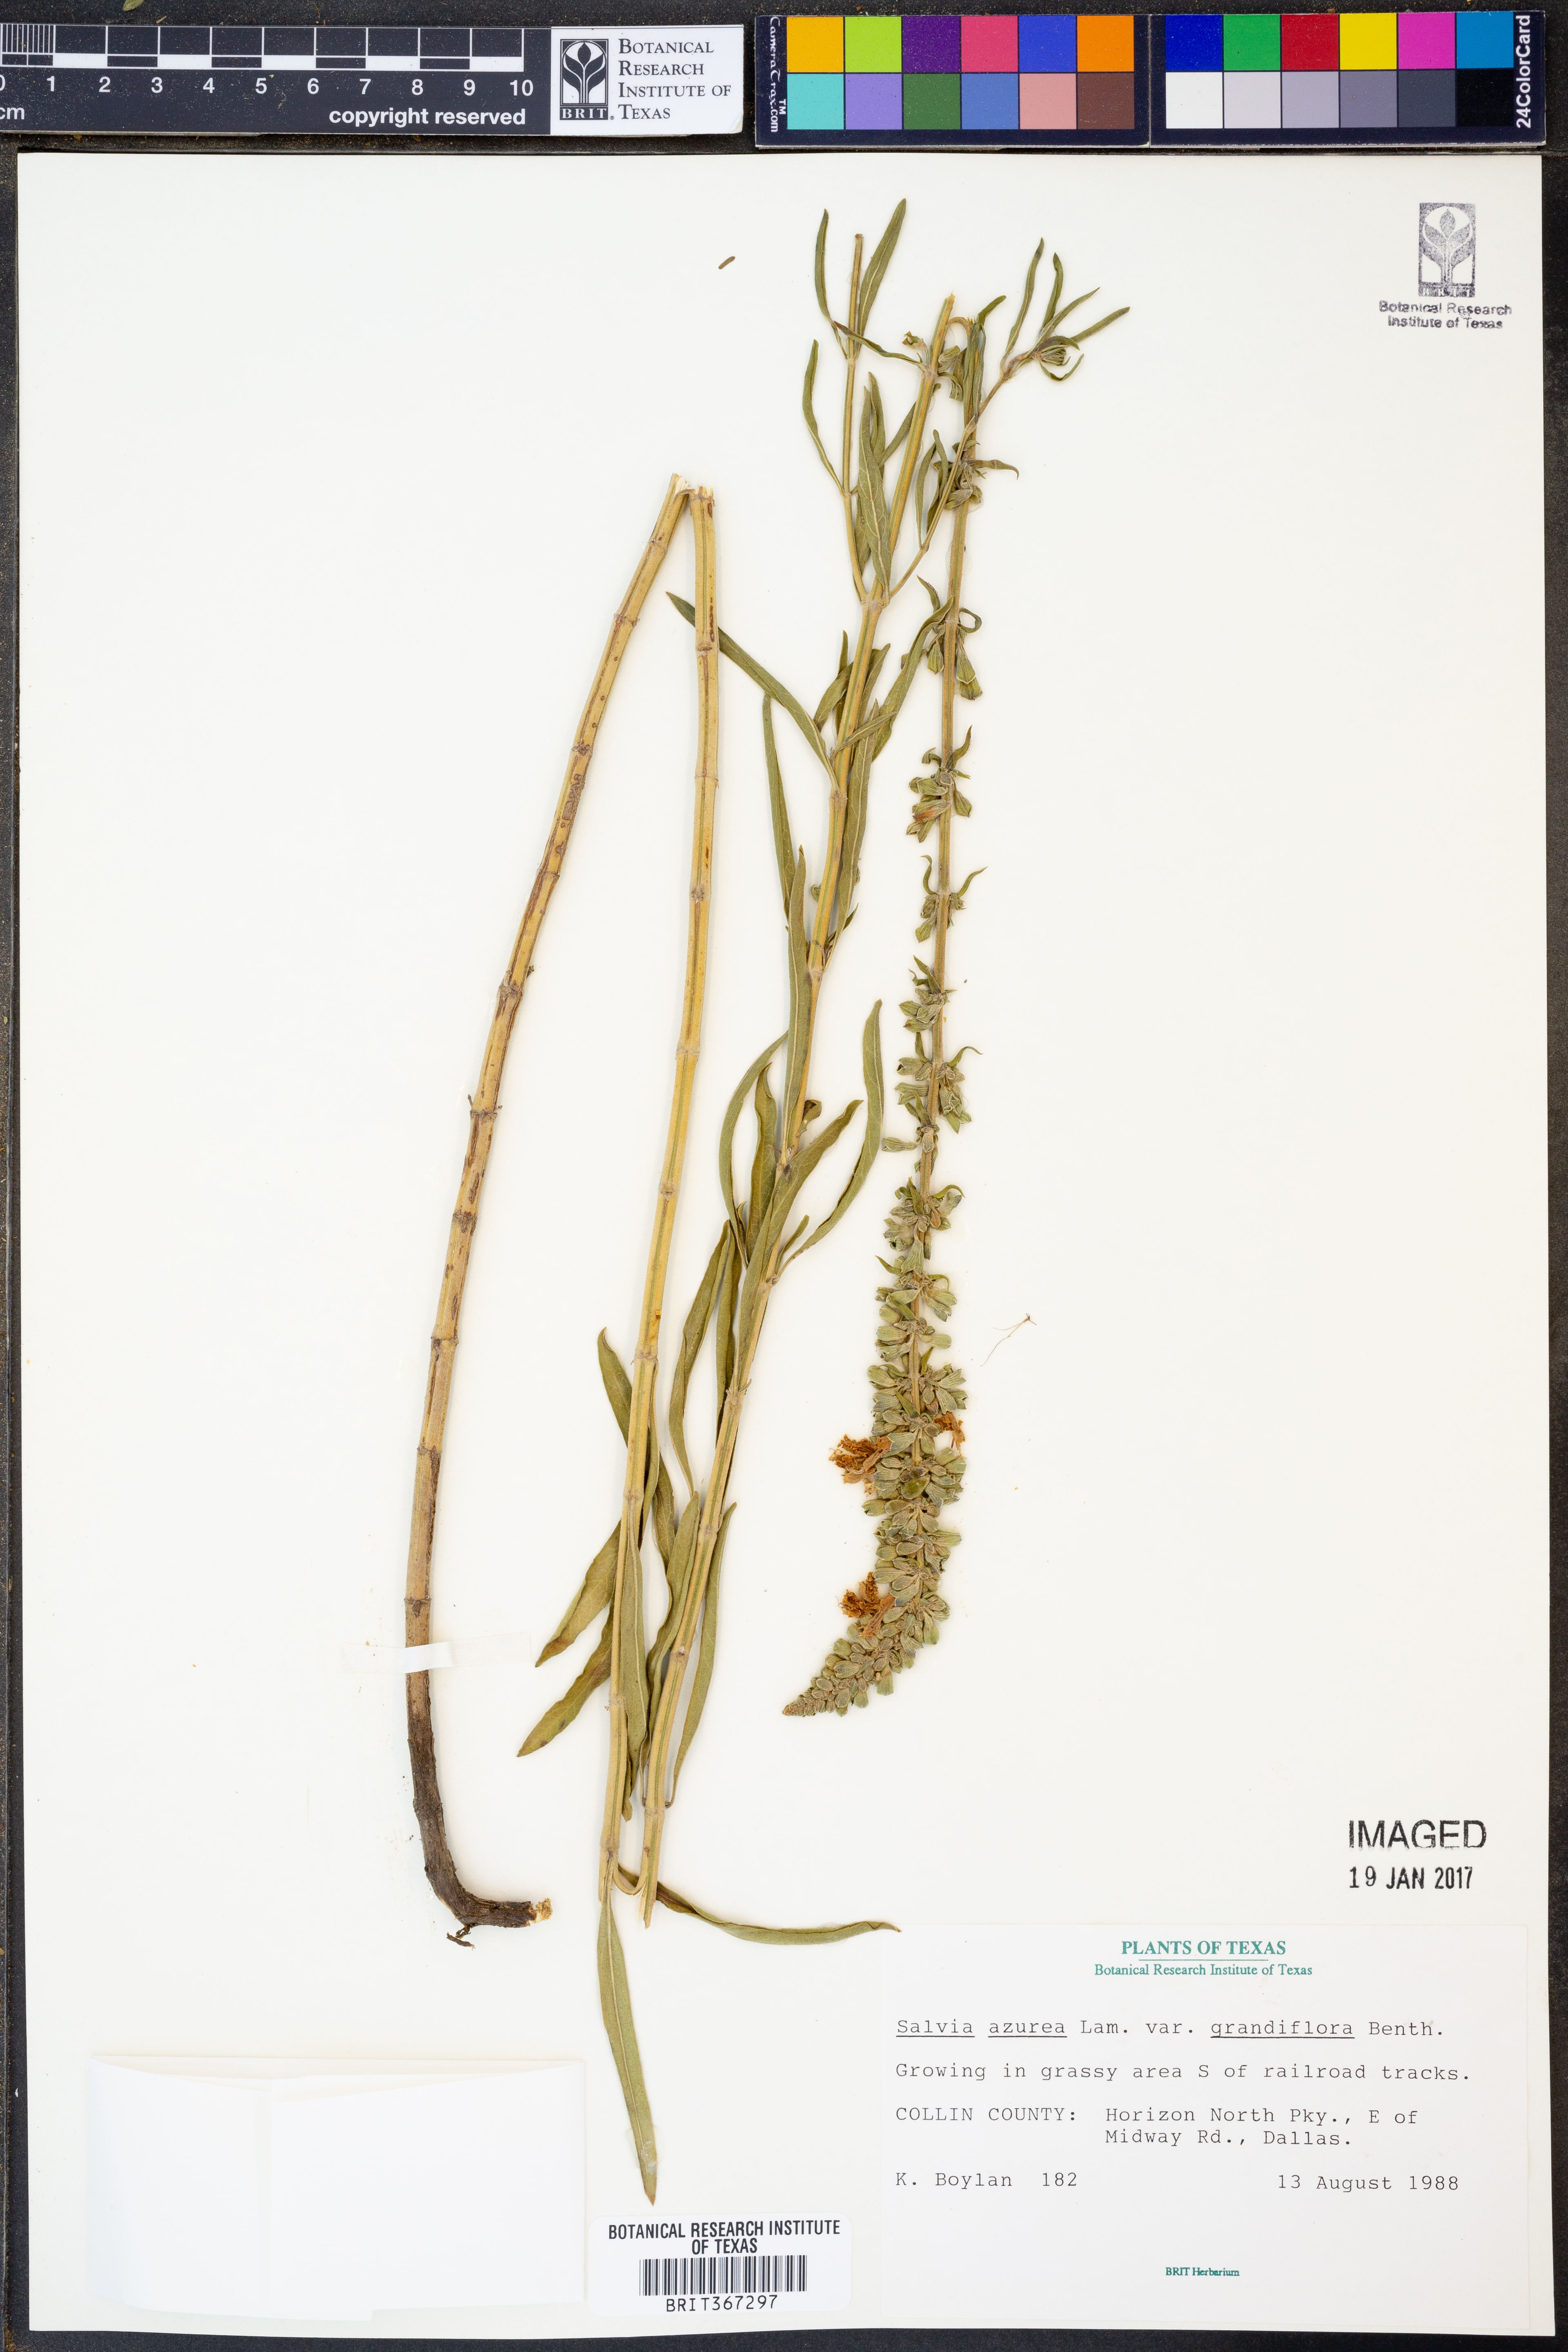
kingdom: Plantae
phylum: Tracheophyta
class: Magnoliopsida
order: Lamiales
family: Lamiaceae
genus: Salvia
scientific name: Salvia azurea
